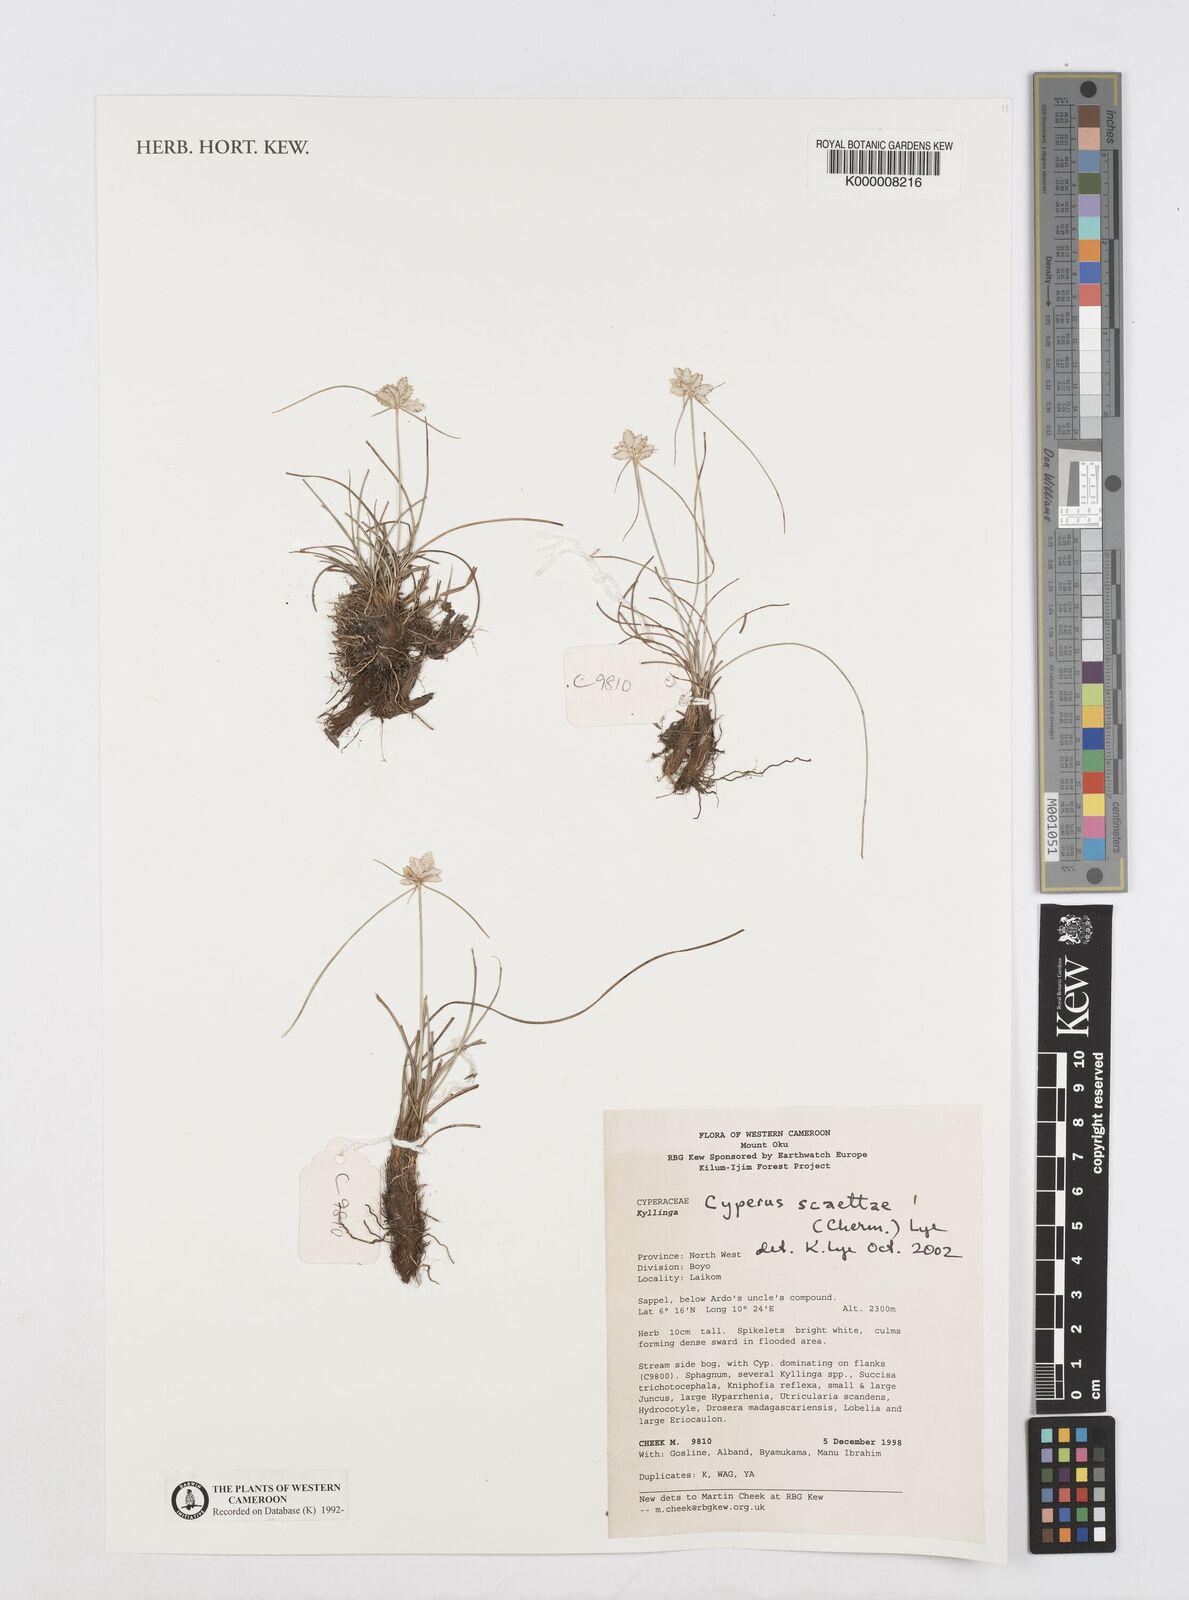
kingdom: Plantae
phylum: Tracheophyta
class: Liliopsida
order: Poales
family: Cyperaceae
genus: Cyperus
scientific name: Cyperus scaettae
